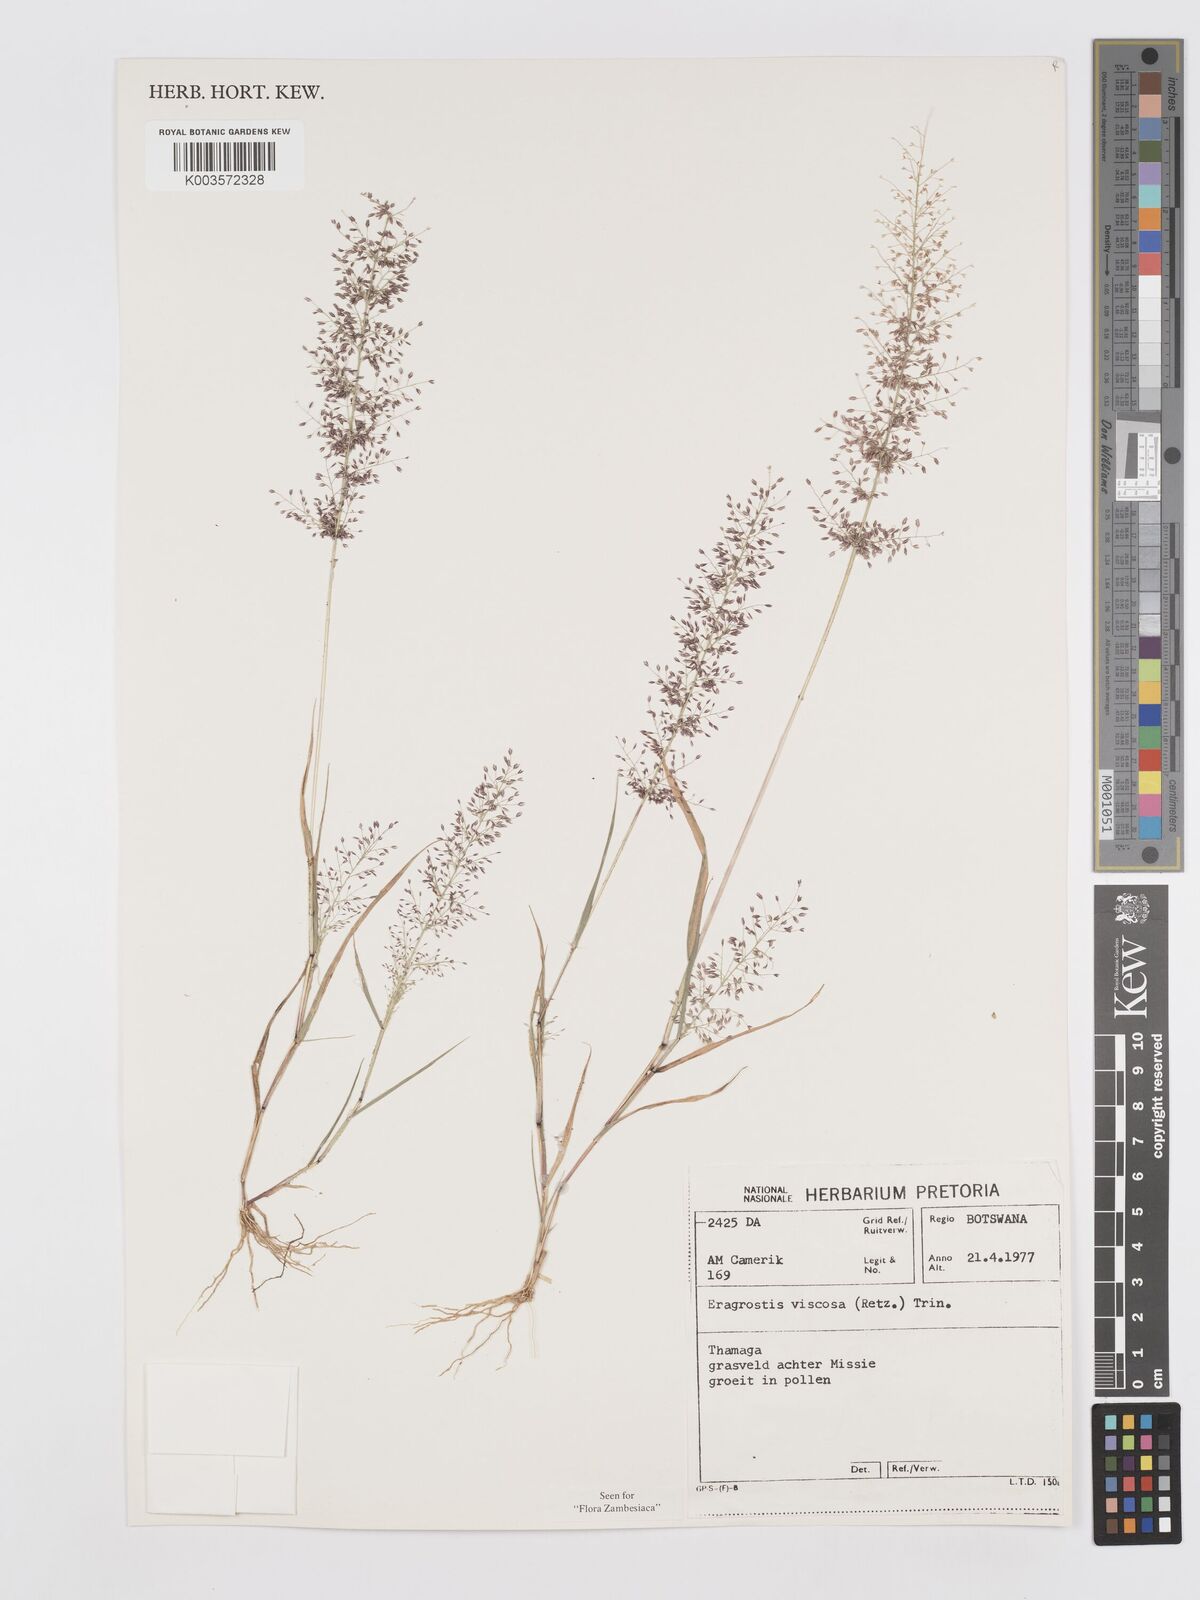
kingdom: Plantae
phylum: Tracheophyta
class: Liliopsida
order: Poales
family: Poaceae
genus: Eragrostis
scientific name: Eragrostis
